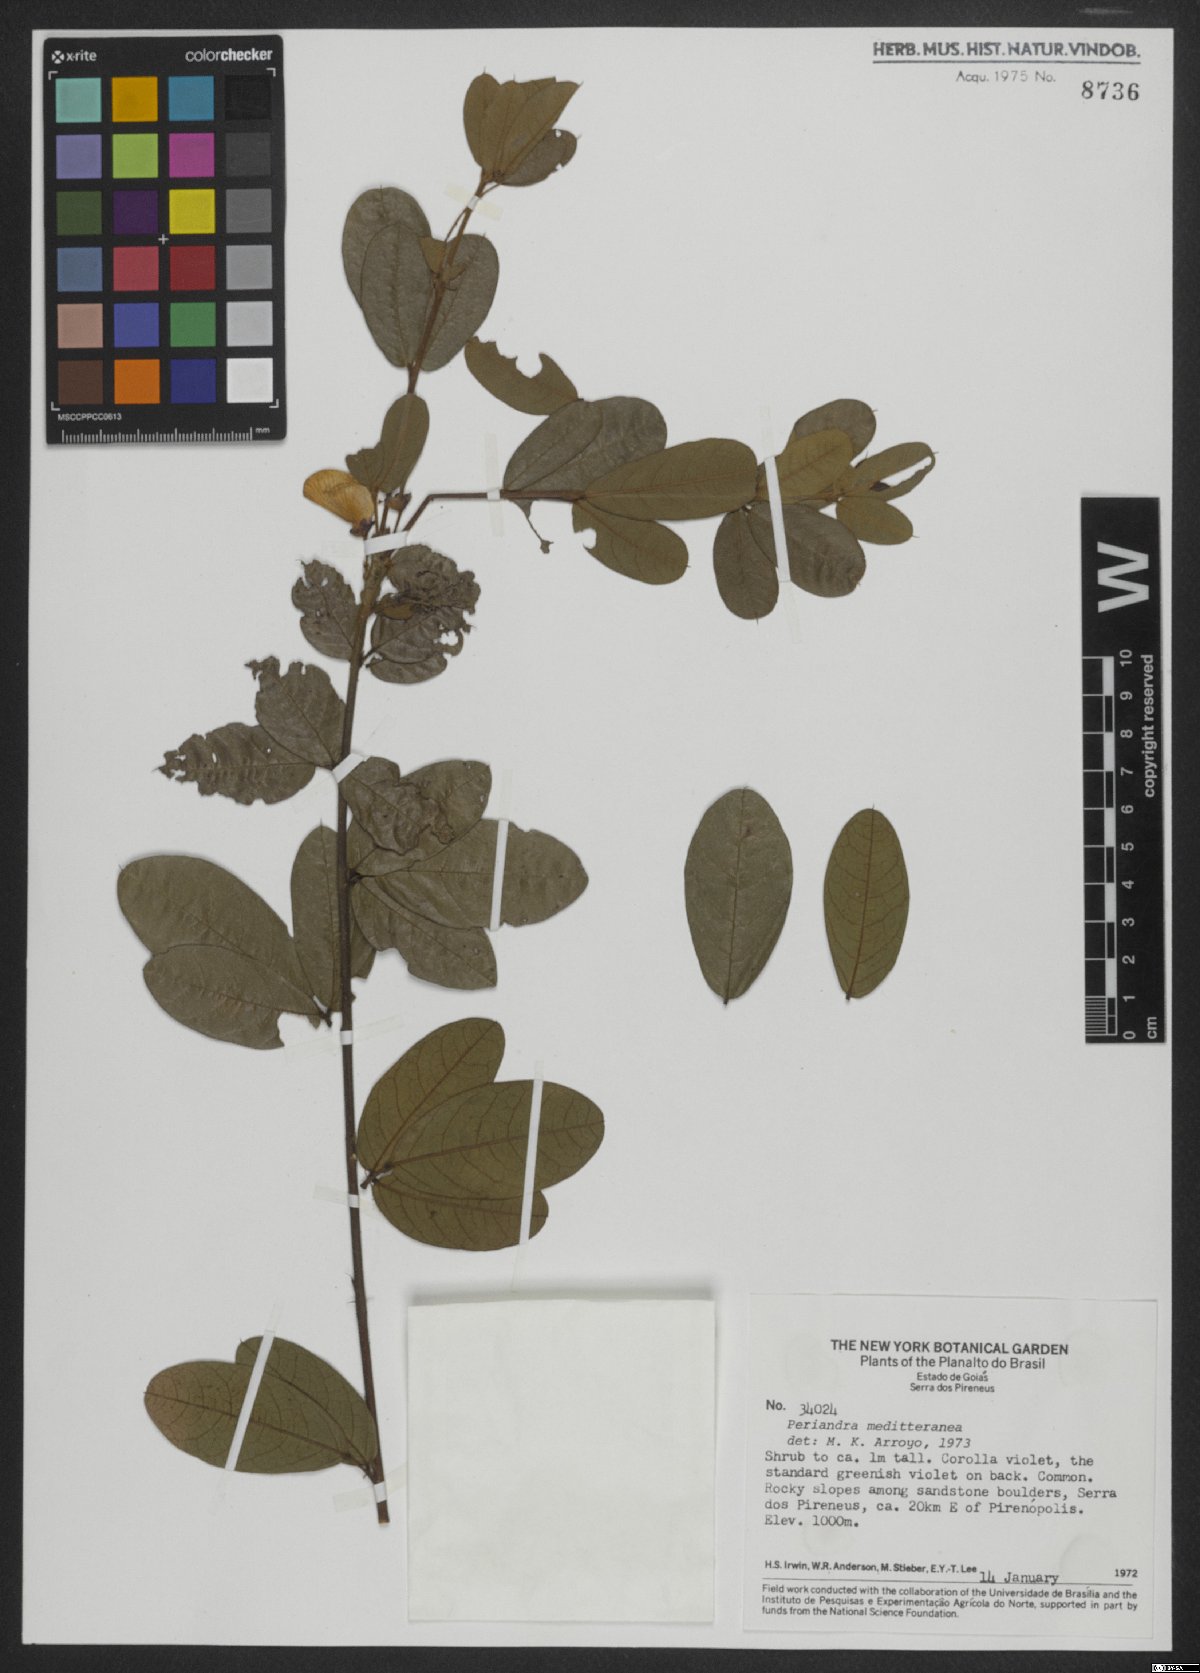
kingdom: Plantae
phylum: Tracheophyta
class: Magnoliopsida
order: Fabales
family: Fabaceae
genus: Periandra
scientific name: Periandra mediterranea
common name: Brazilian licorice
